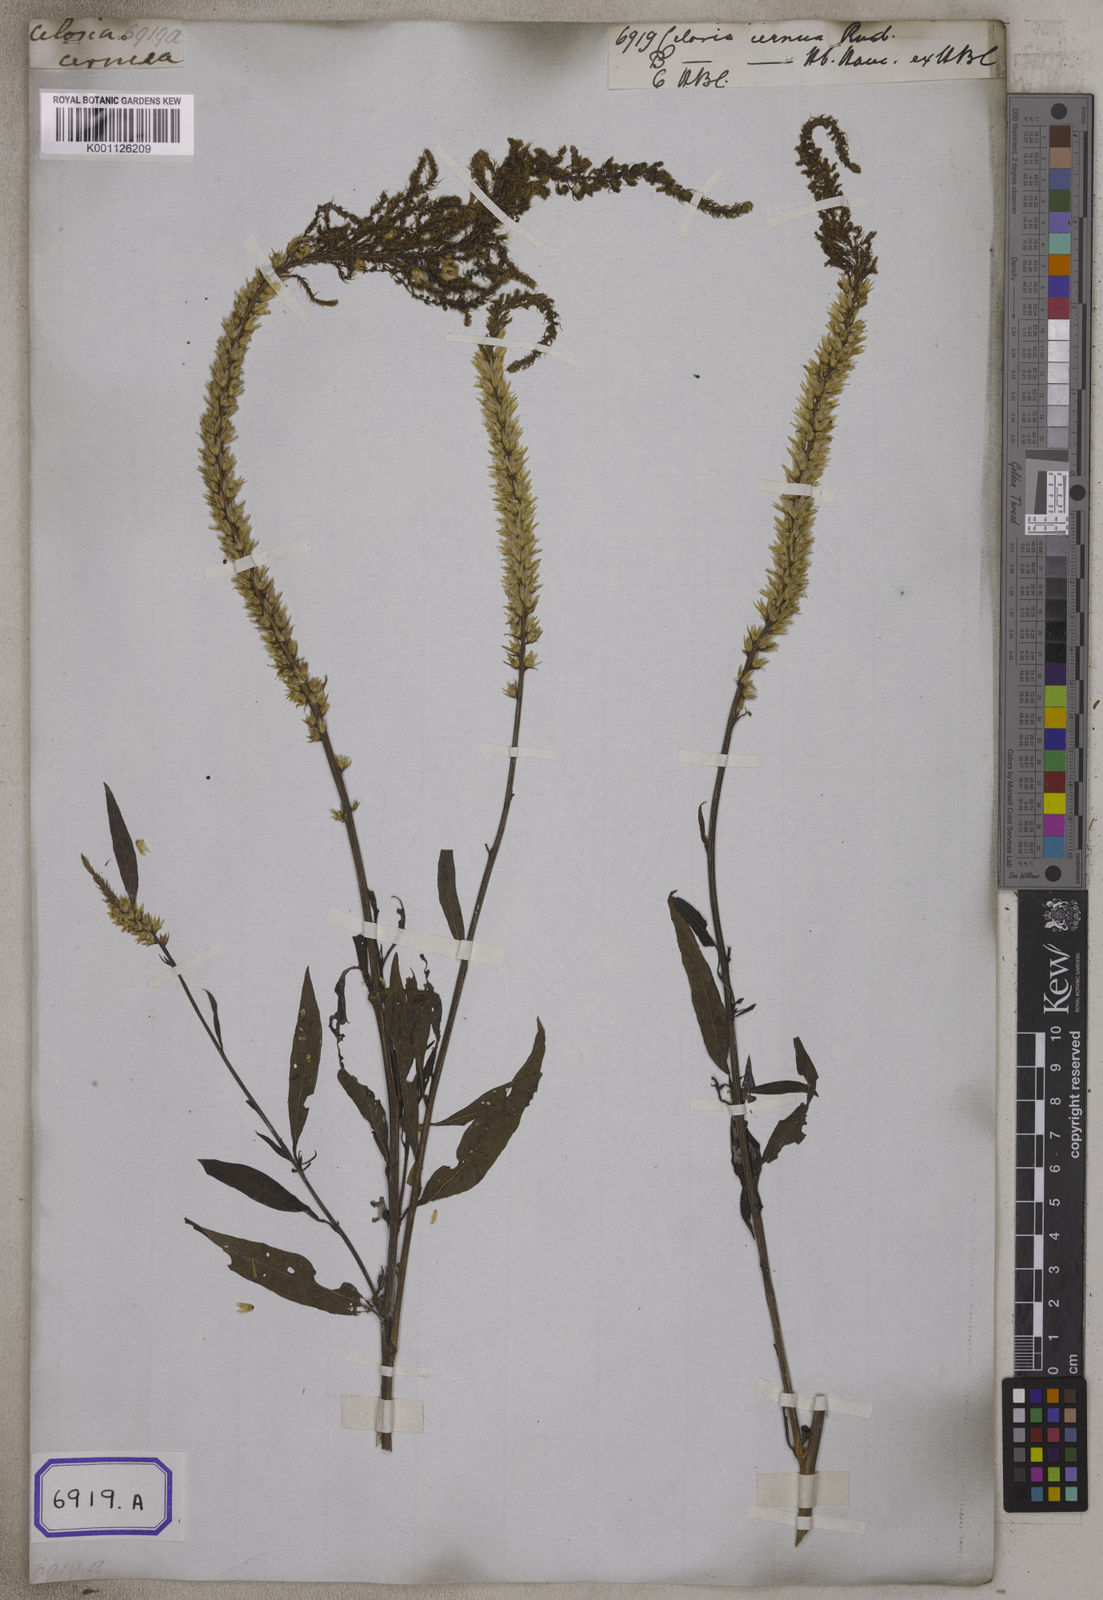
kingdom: Plantae
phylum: Tracheophyta
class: Magnoliopsida
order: Caryophyllales
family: Amaranthaceae
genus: Celosia
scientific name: Celosia argentea
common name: Feather cockscomb
